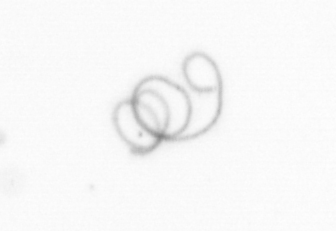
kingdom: Chromista
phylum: Ochrophyta
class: Bacillariophyceae
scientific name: Bacillariophyceae
